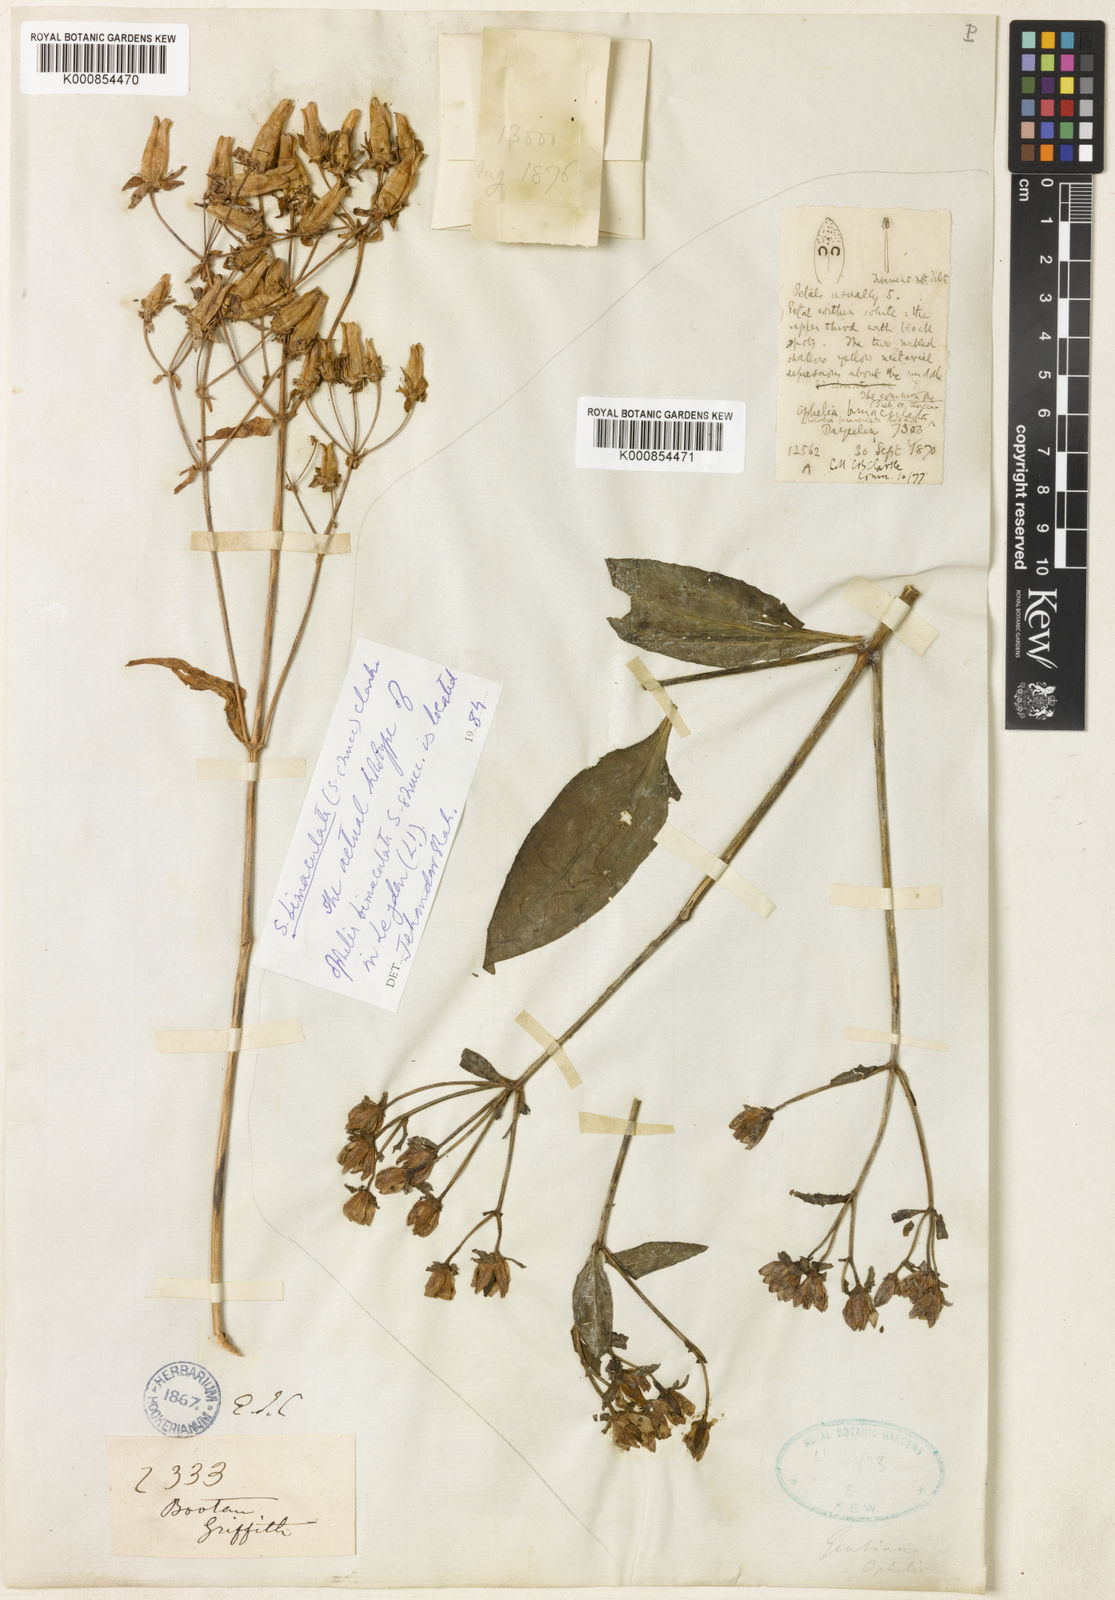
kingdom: Plantae
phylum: Tracheophyta
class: Magnoliopsida
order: Gentianales
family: Gentianaceae
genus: Swertia
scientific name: Swertia bimaculata
